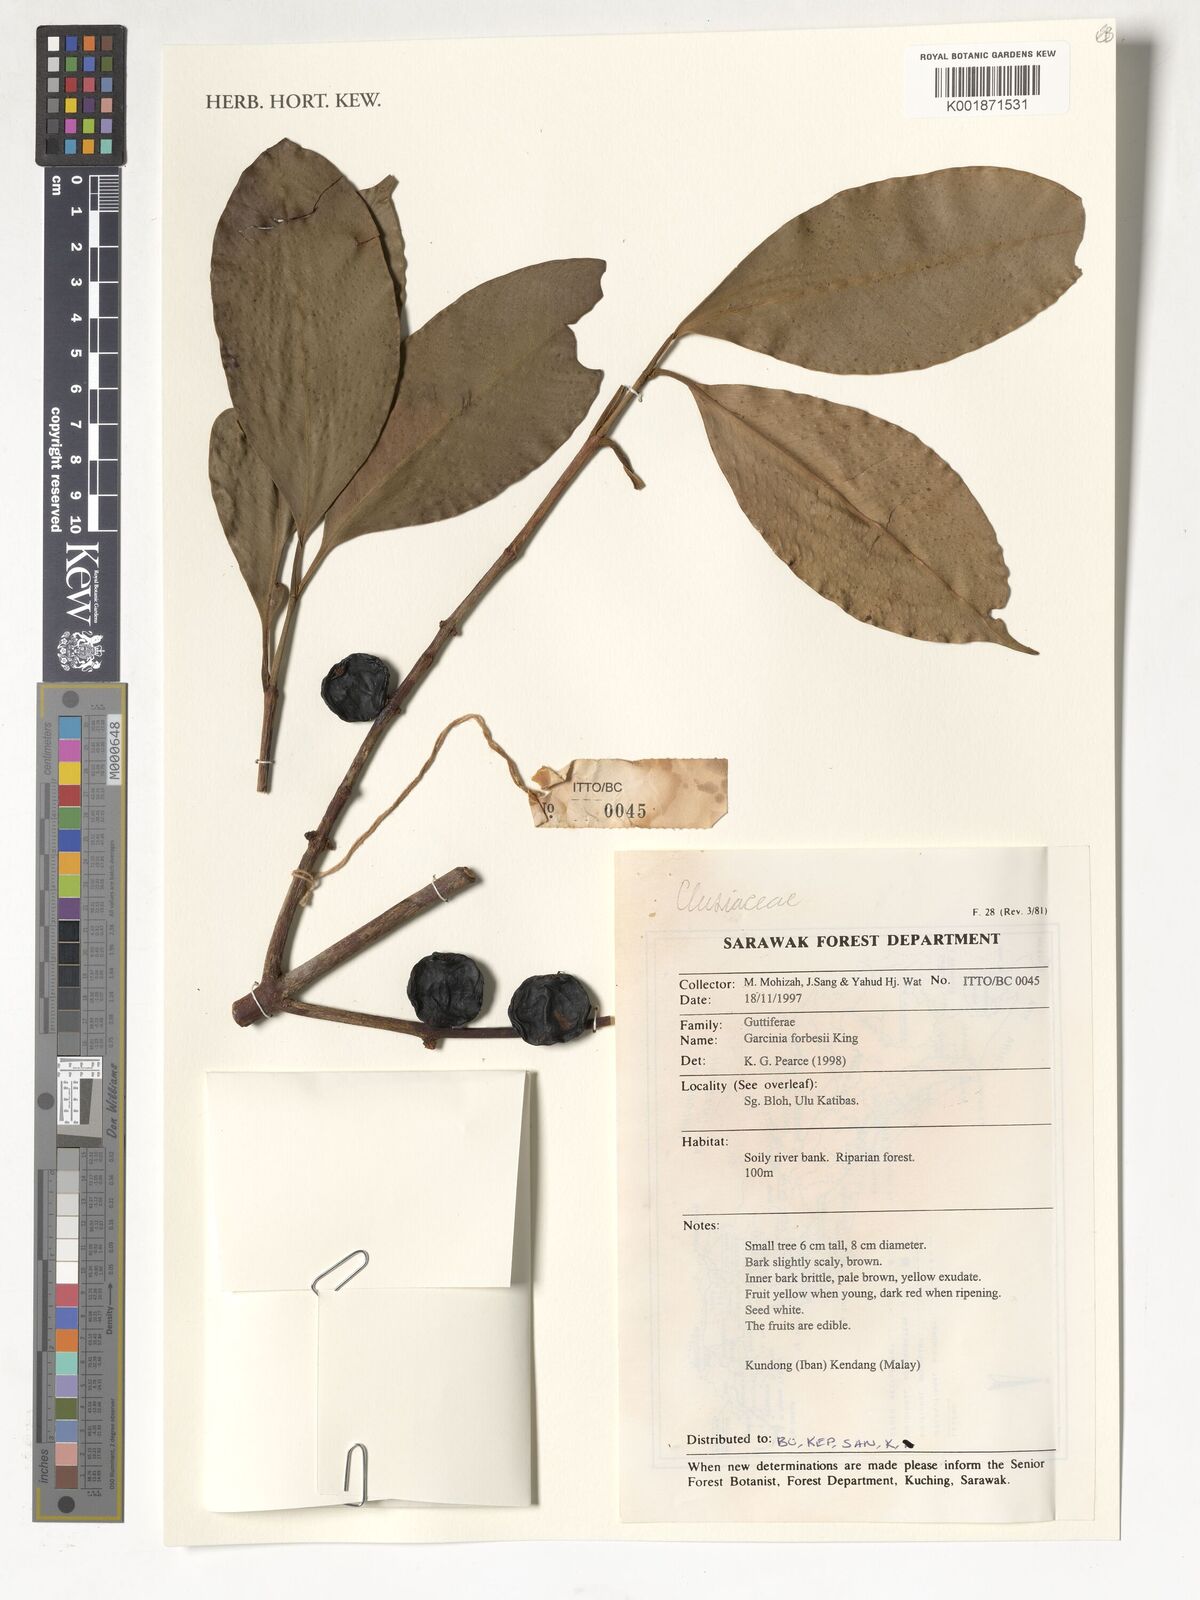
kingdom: Plantae
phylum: Tracheophyta
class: Magnoliopsida
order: Malpighiales
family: Clusiaceae
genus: Garcinia
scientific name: Garcinia forbesii
